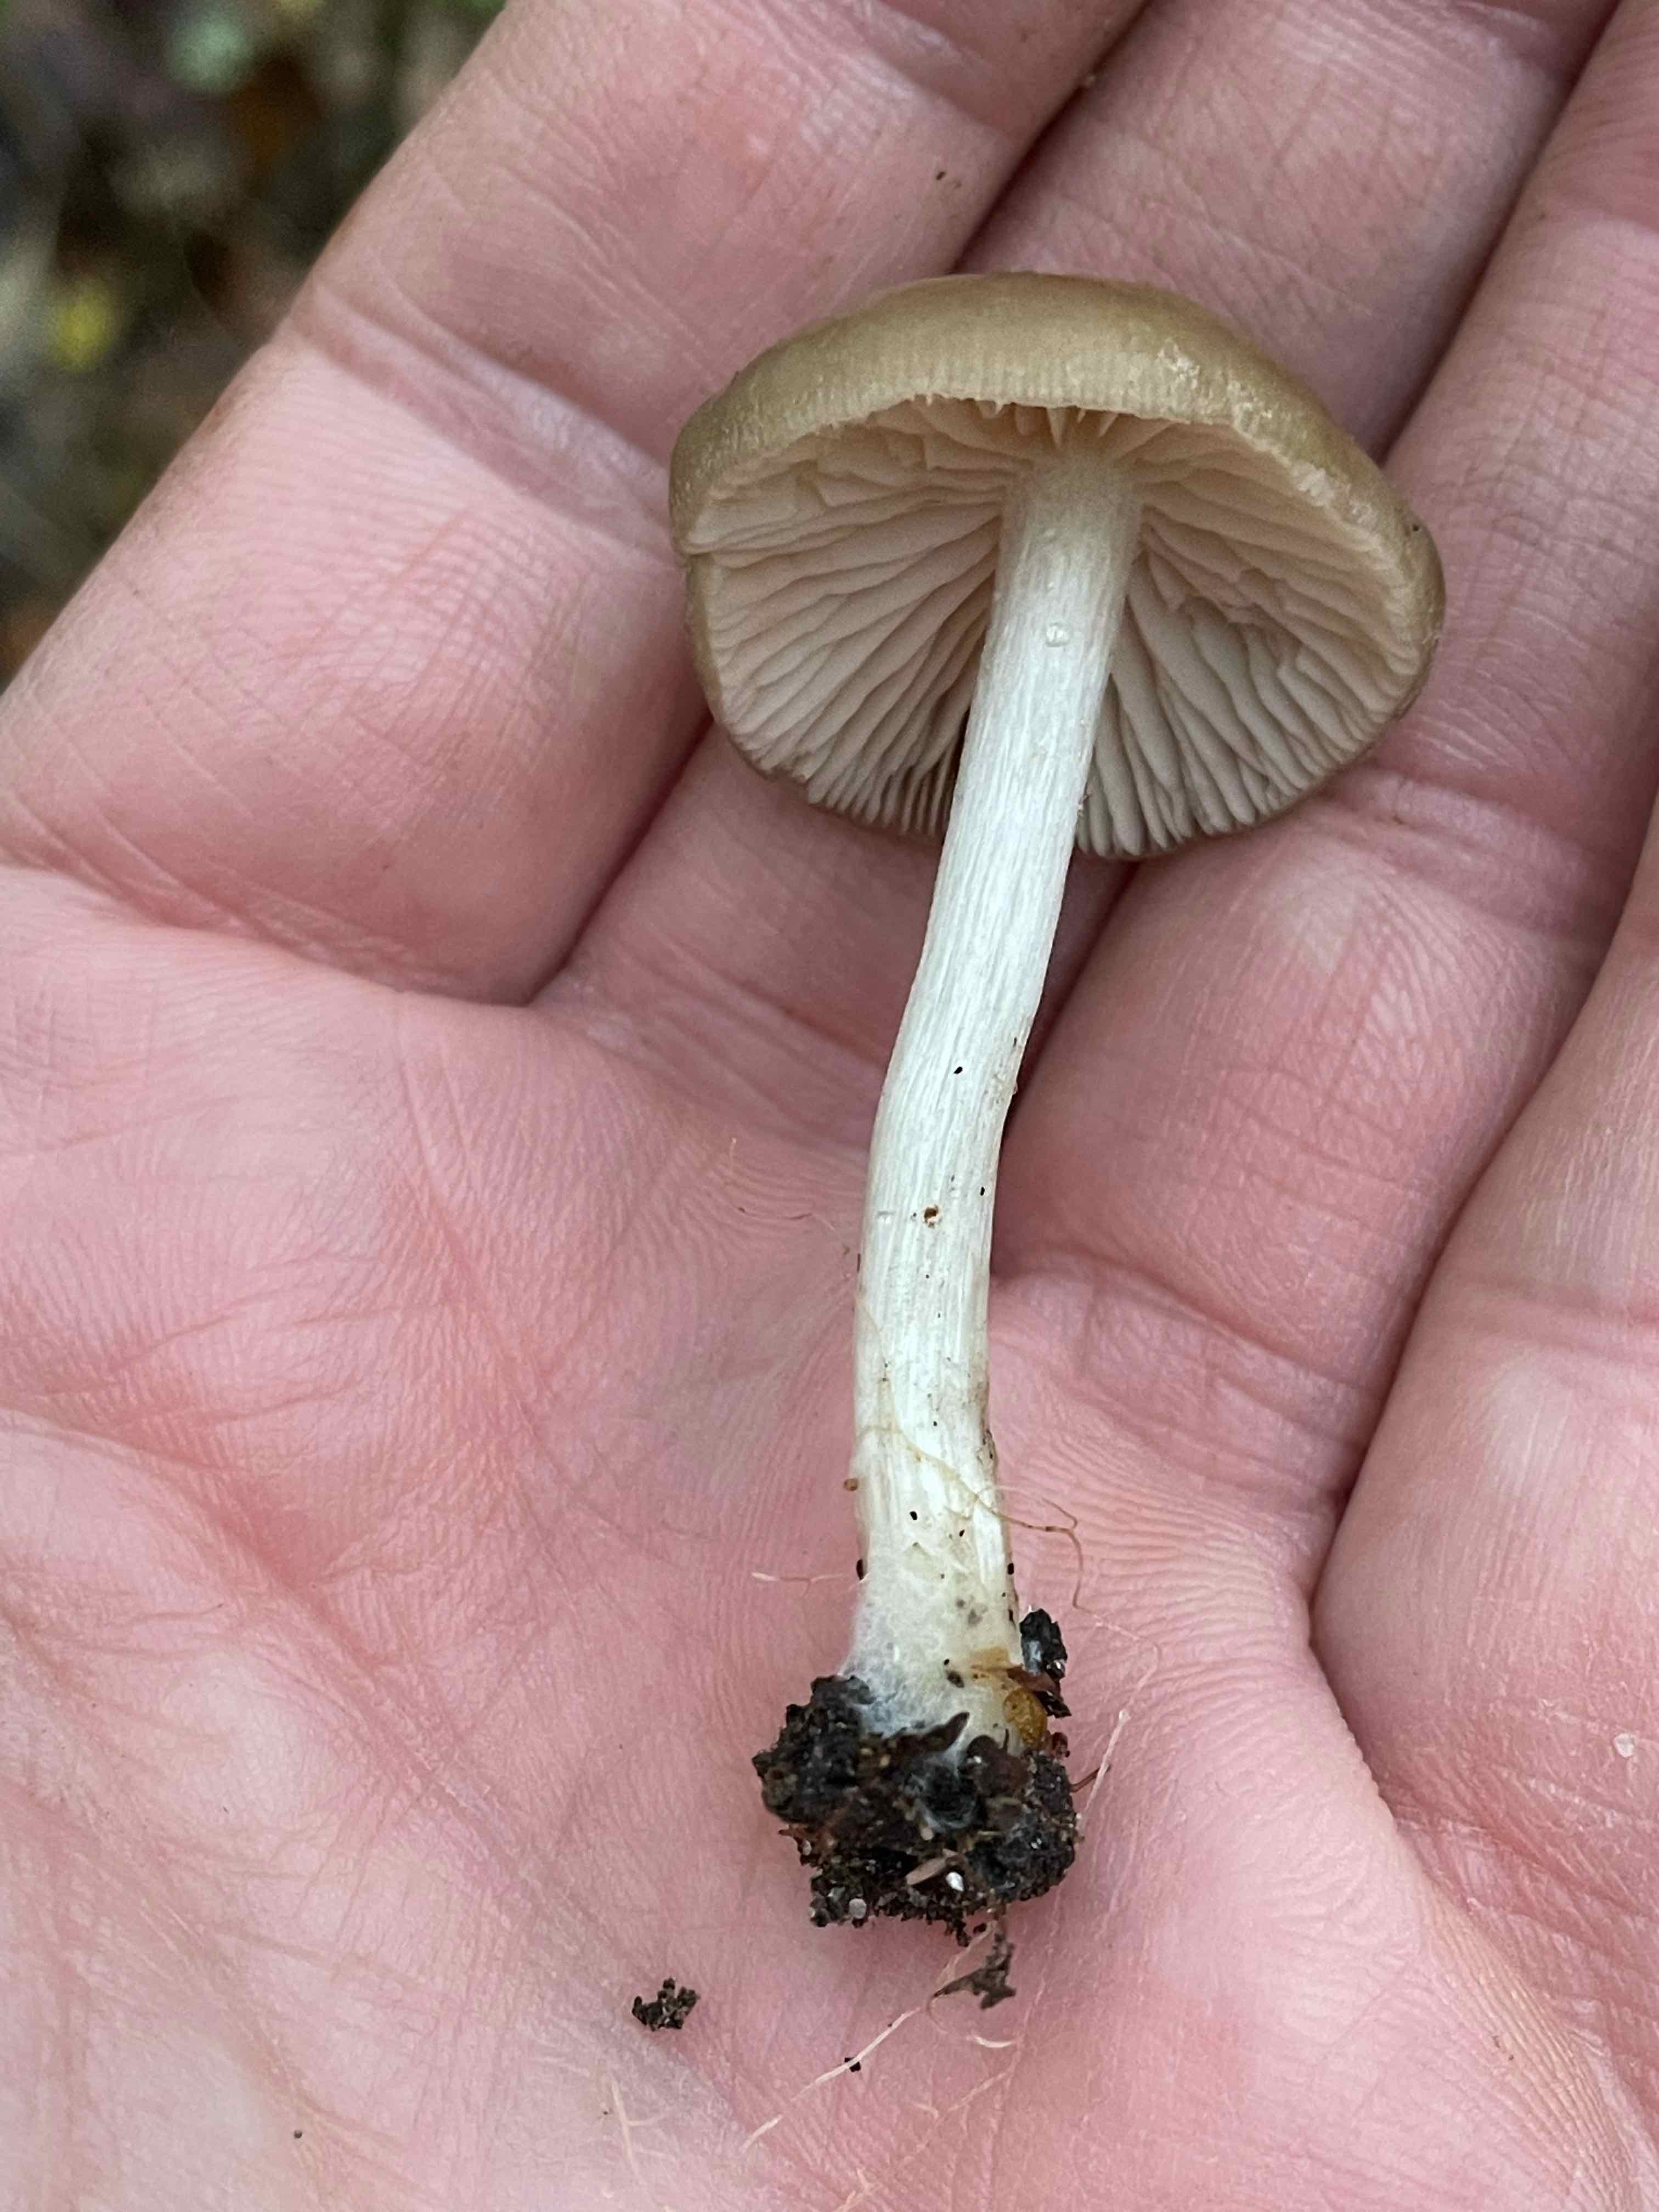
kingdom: Fungi
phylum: Basidiomycota
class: Agaricomycetes
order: Agaricales
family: Entolomataceae
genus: Entoloma
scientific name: Entoloma
